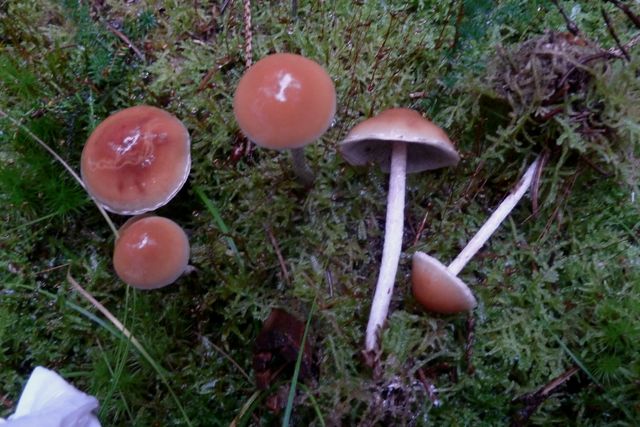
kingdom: Fungi
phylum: Basidiomycota
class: Agaricomycetes
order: Agaricales
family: Strophariaceae
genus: Hypholoma
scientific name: Hypholoma marginatum
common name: enlig svovlhat
